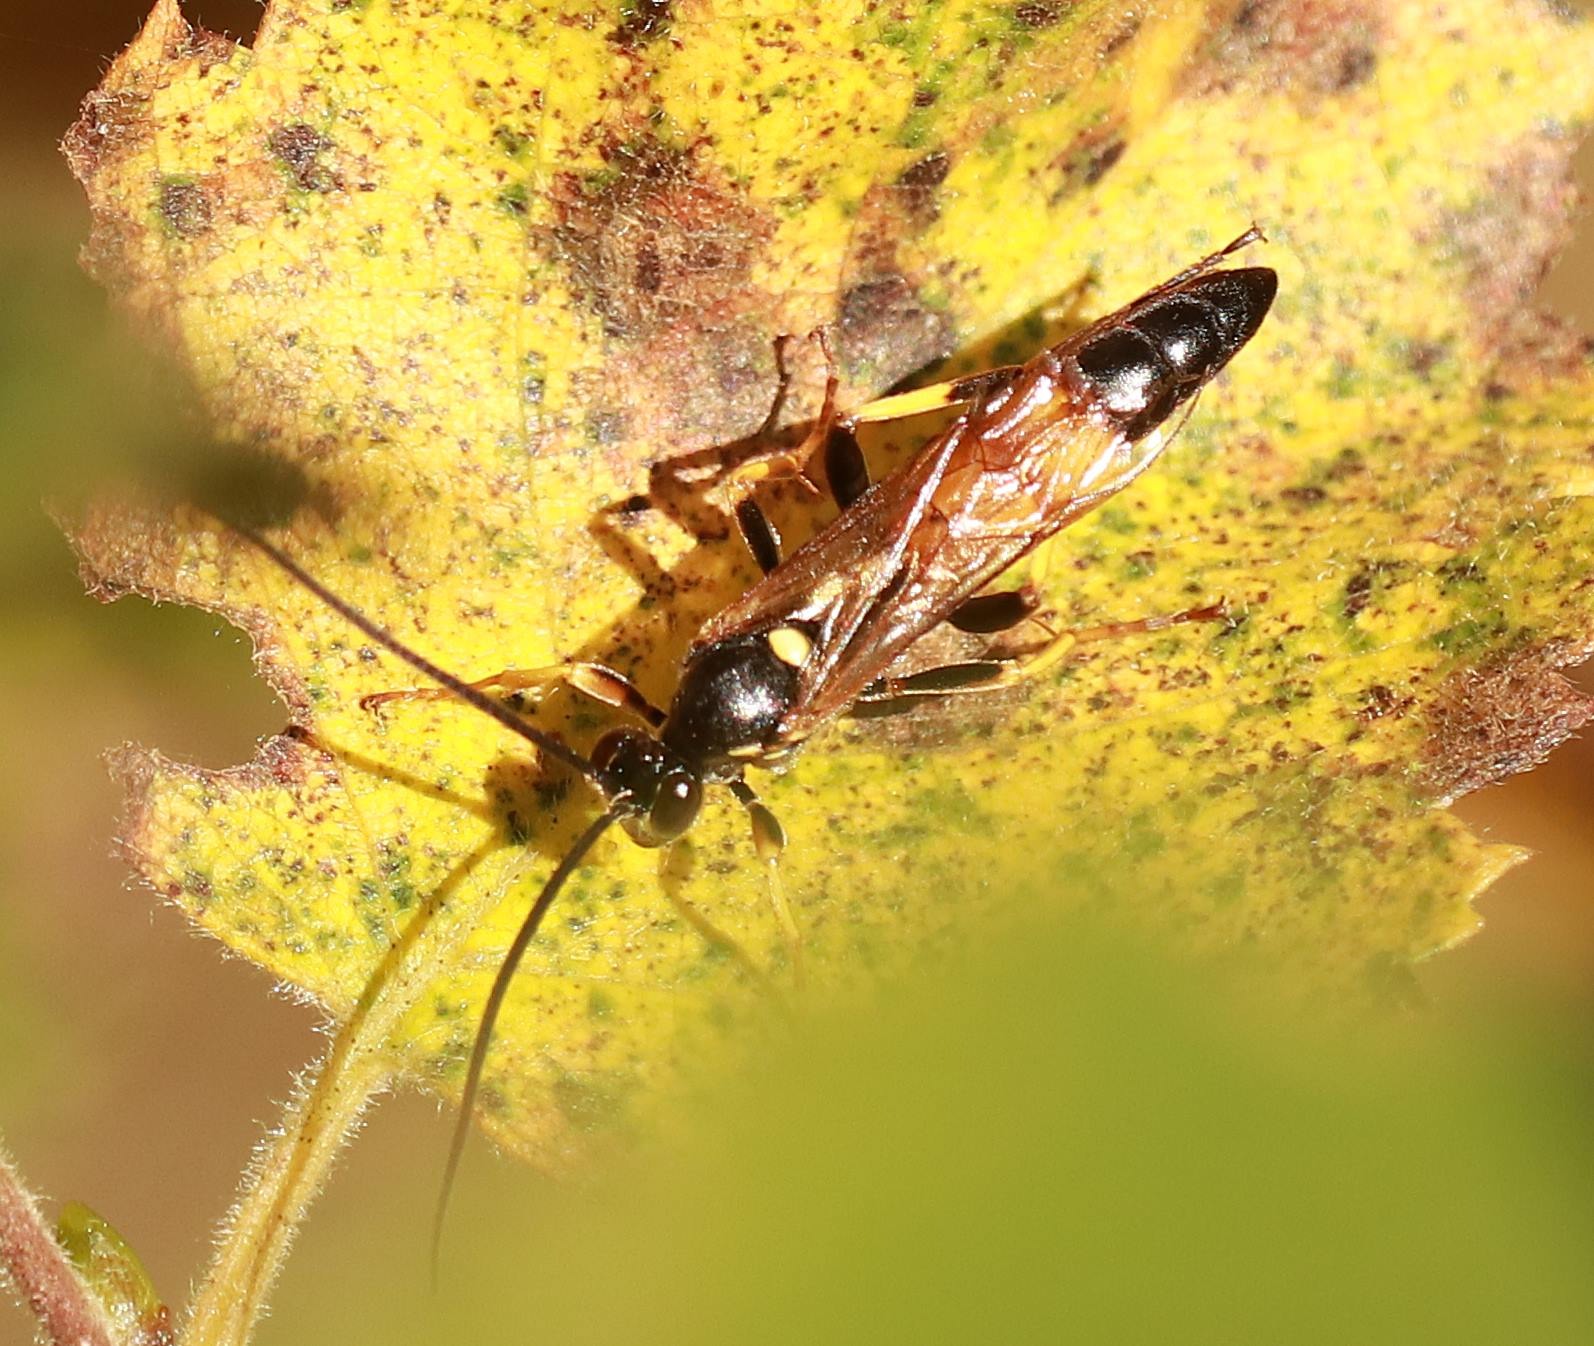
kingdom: Animalia
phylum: Arthropoda
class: Insecta
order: Hymenoptera
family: Ichneumonidae
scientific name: Ichneumonidae
